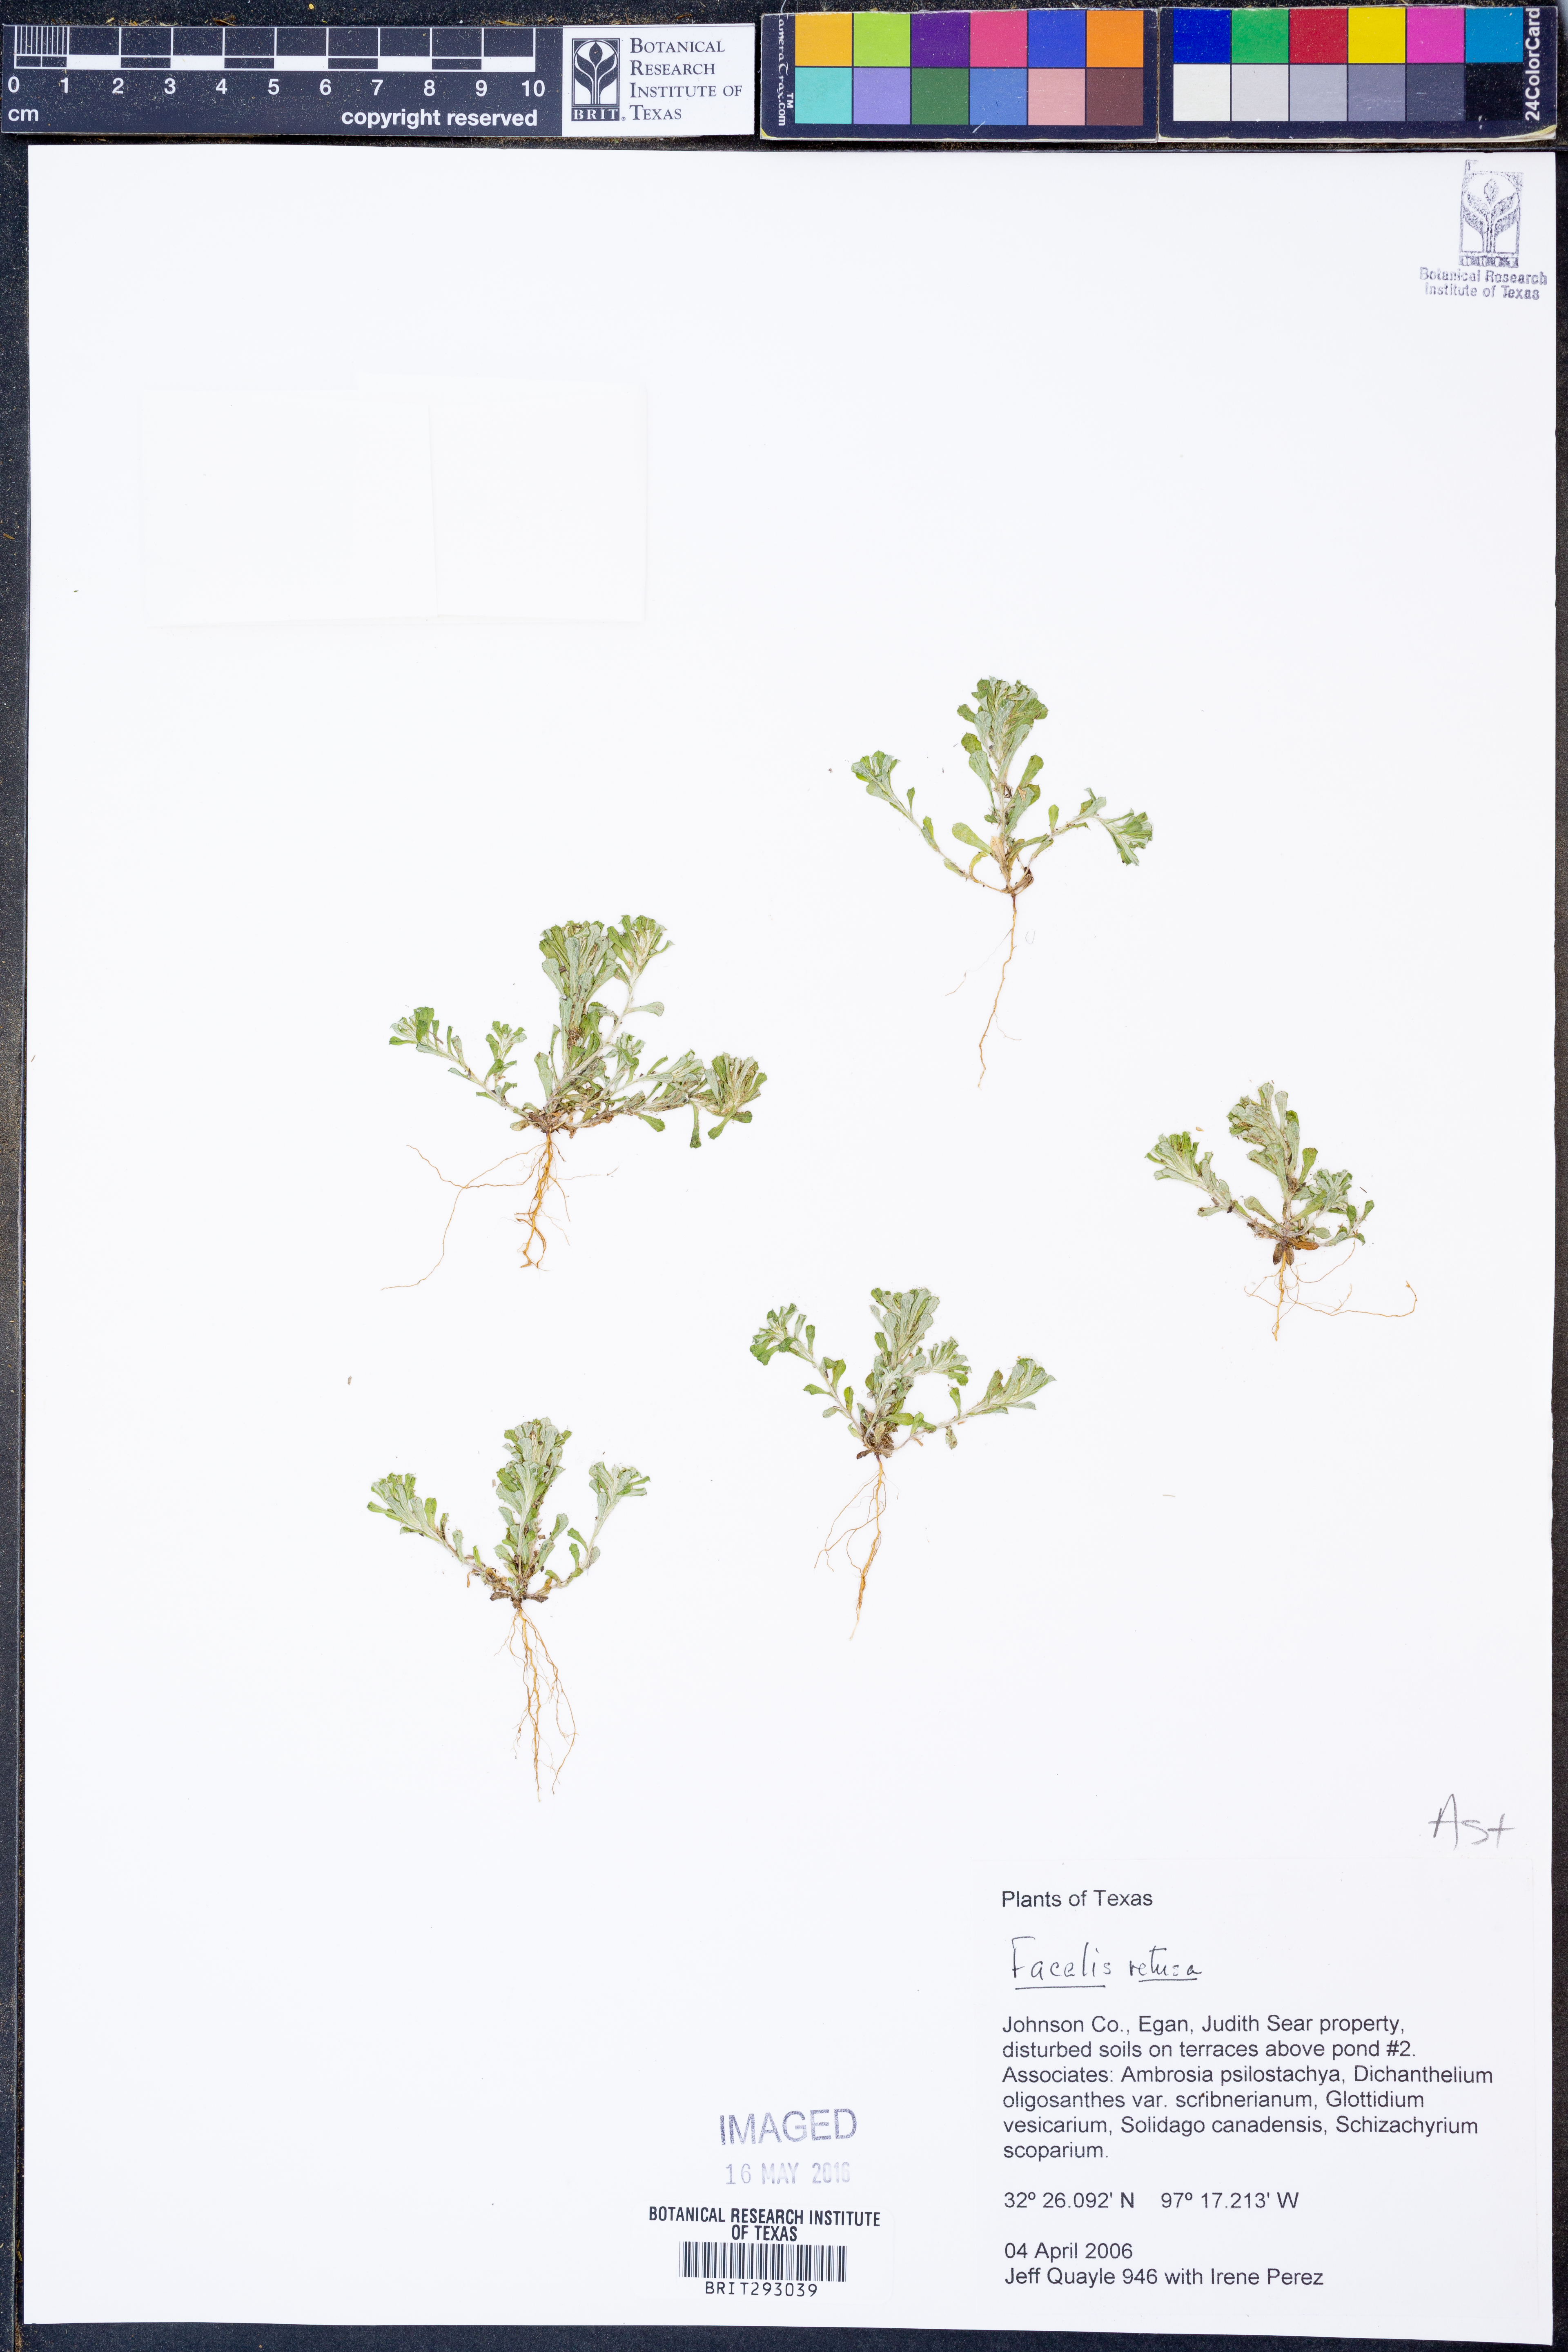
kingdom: Plantae
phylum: Tracheophyta
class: Magnoliopsida
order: Asterales
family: Asteraceae
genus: Facelis
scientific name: Facelis retusa
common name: Annual trampweed
